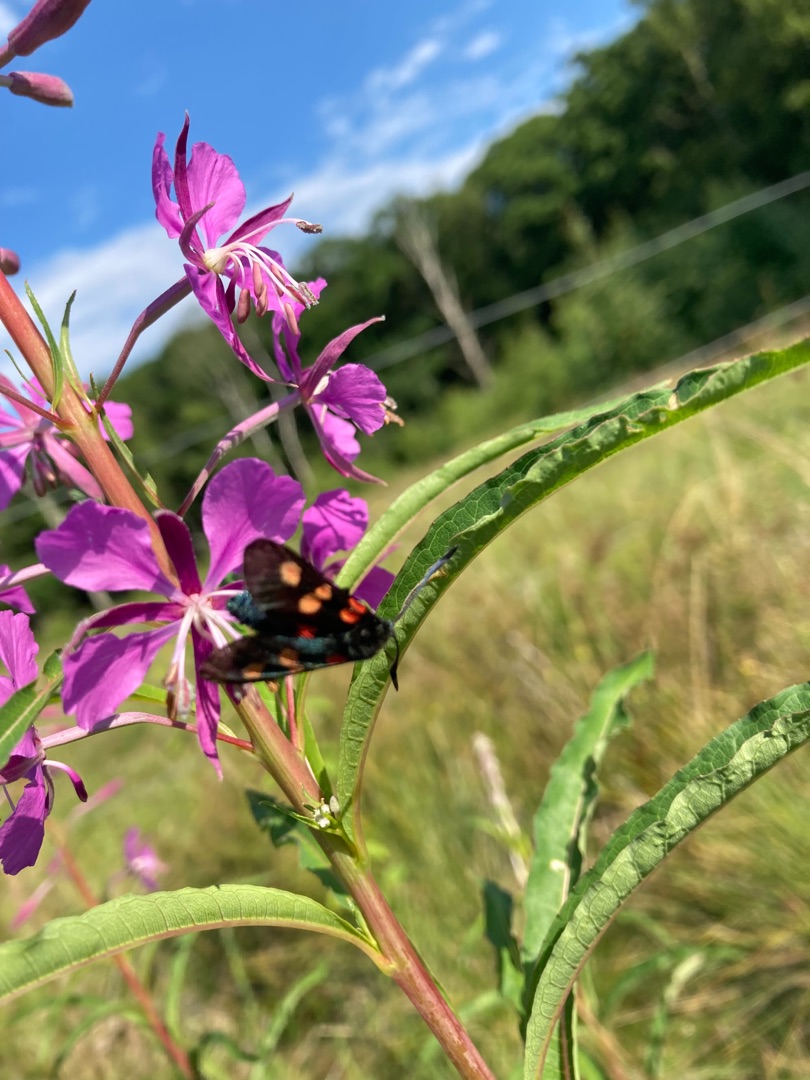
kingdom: Animalia
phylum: Arthropoda
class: Insecta
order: Lepidoptera
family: Zygaenidae
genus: Zygaena
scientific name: Zygaena lonicerae
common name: Femplettet køllesværmer
